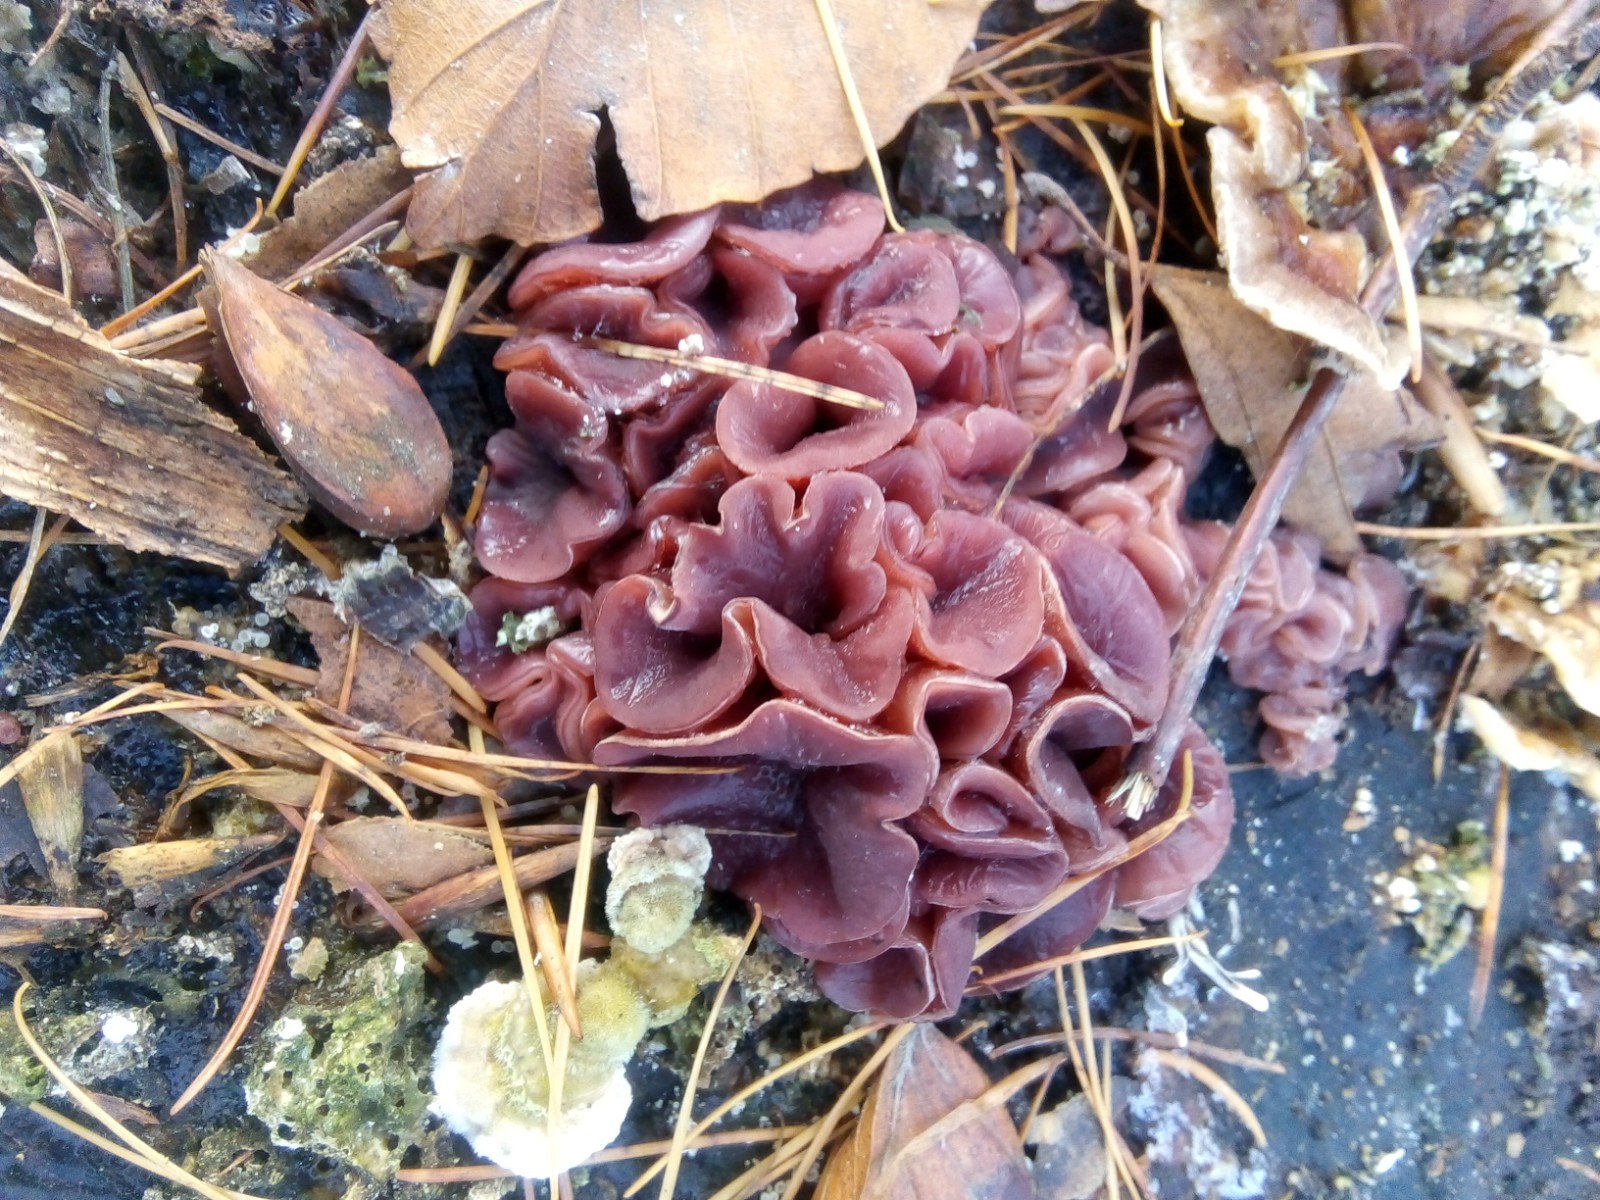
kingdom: Fungi
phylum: Ascomycota
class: Leotiomycetes
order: Helotiales
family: Gelatinodiscaceae
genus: Ascocoryne
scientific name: Ascocoryne cylichnium
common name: stor sejskive
